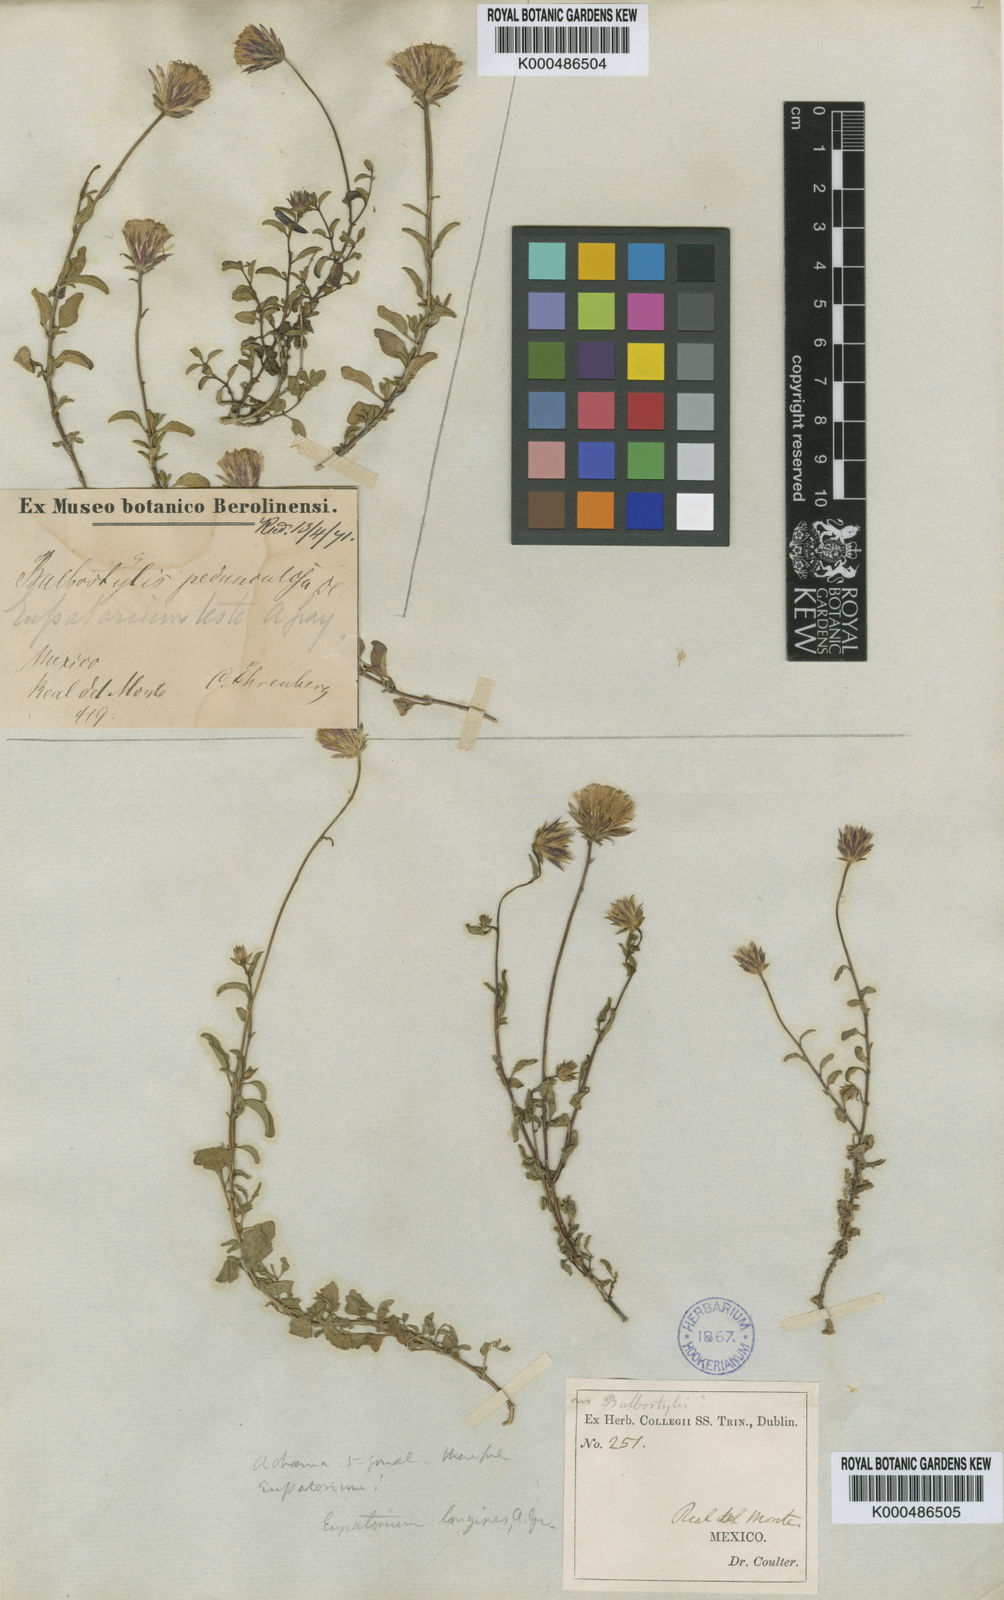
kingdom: Plantae
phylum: Tracheophyta
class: Magnoliopsida
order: Asterales
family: Asteraceae
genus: Brickellia
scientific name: Brickellia
